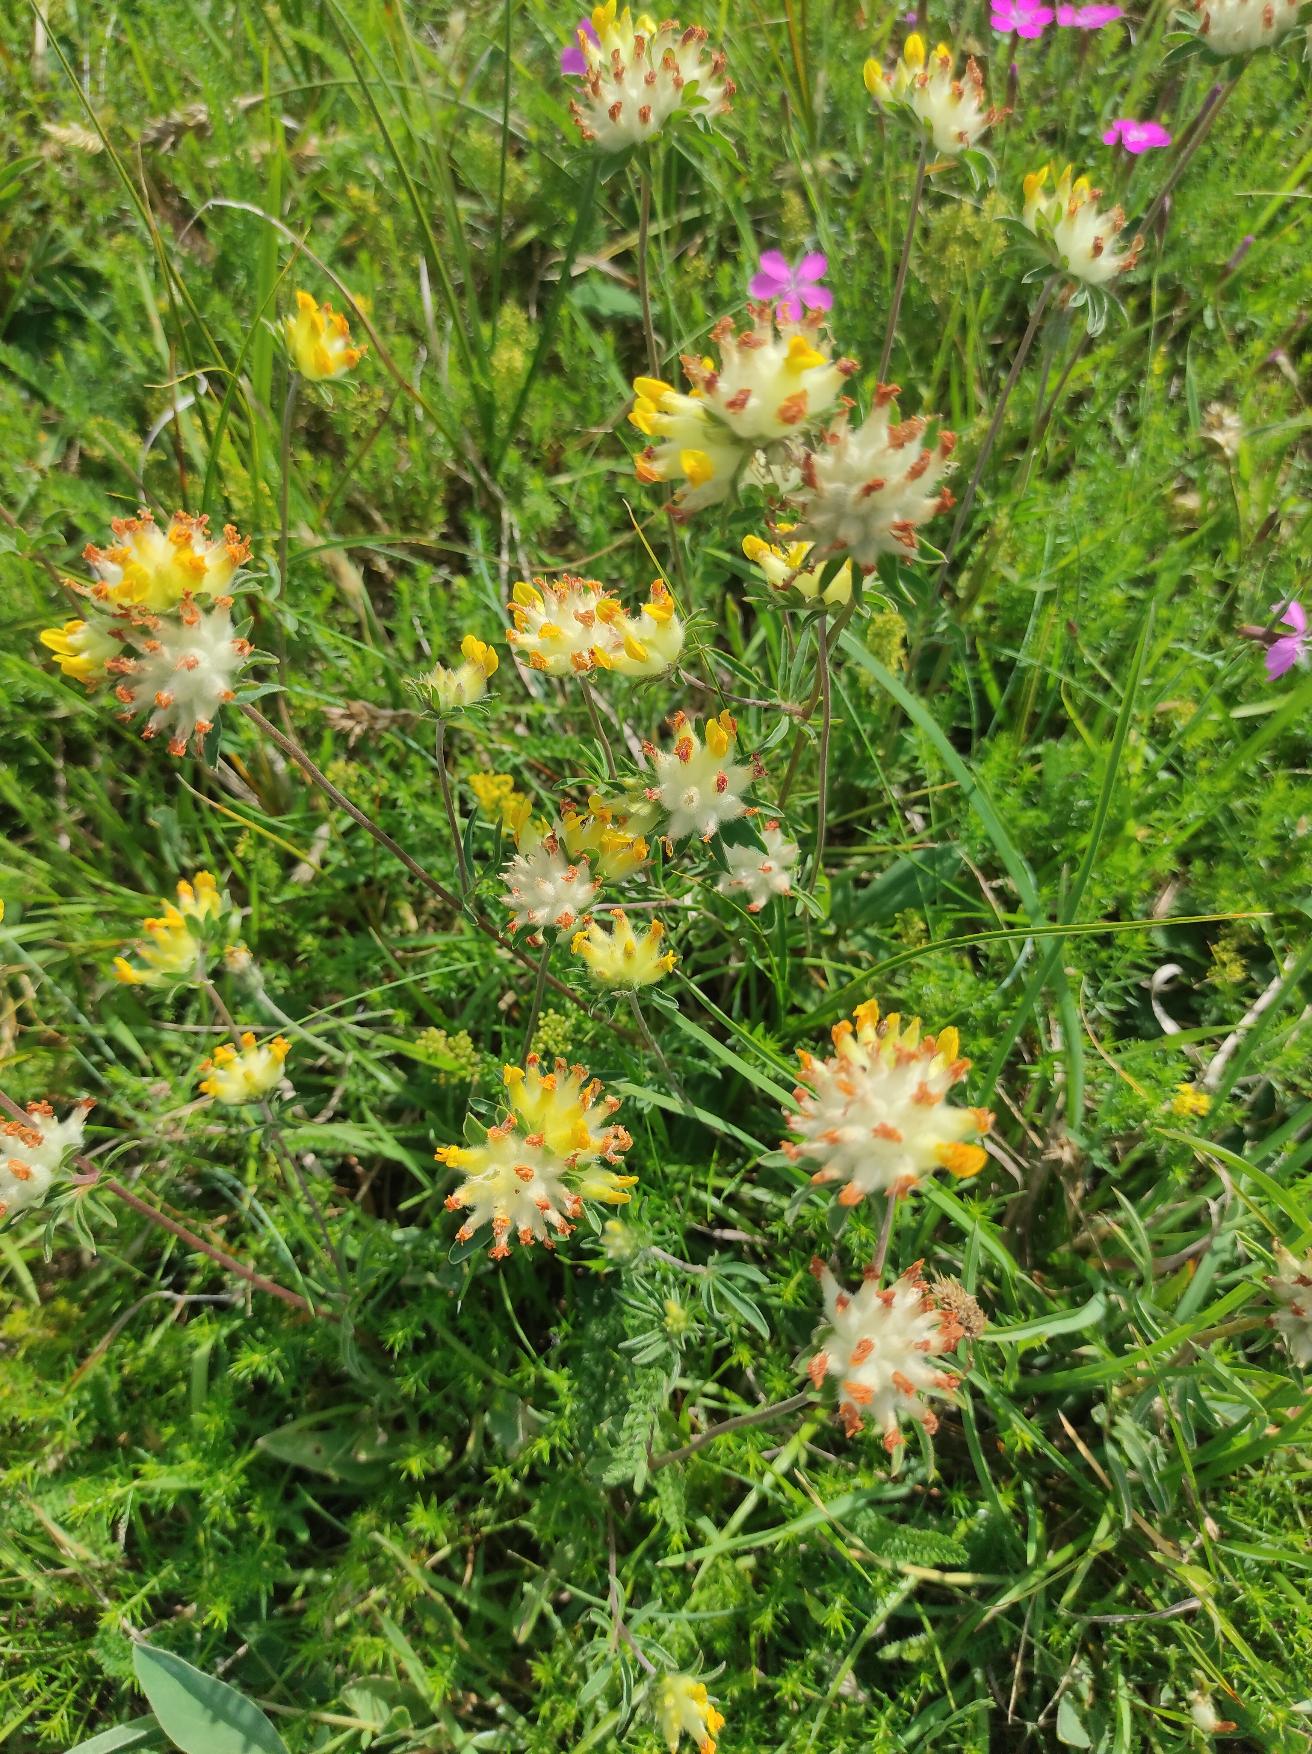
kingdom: Plantae
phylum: Tracheophyta
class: Magnoliopsida
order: Fabales
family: Fabaceae
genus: Anthyllis
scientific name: Anthyllis vulneraria
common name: Rundbælg
